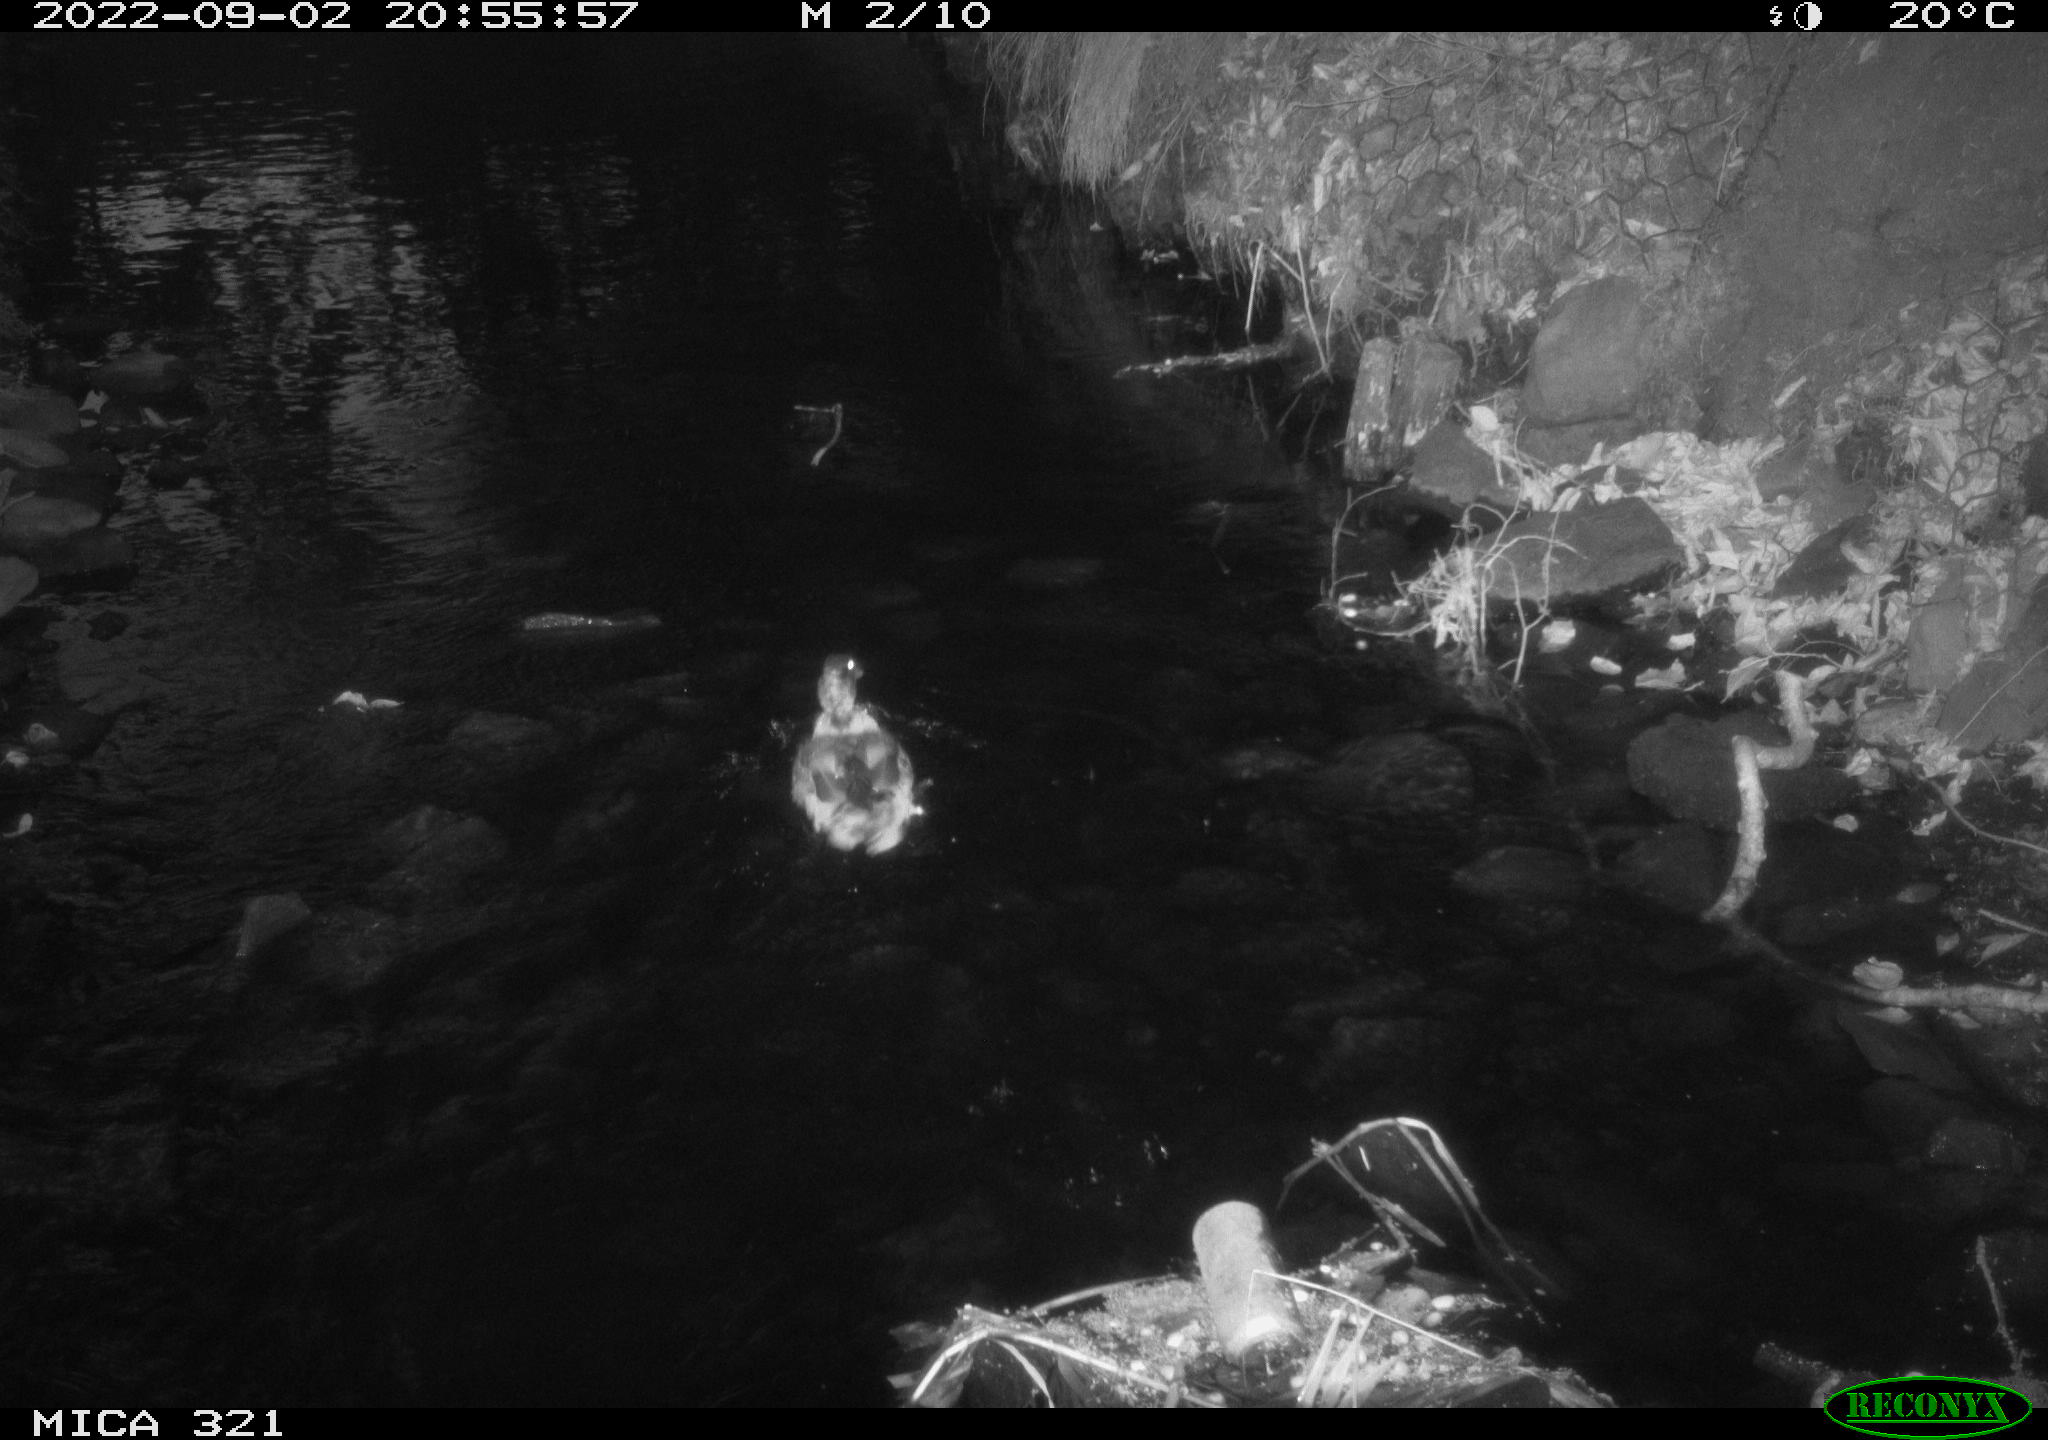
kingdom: Animalia
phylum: Chordata
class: Aves
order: Anseriformes
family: Anatidae
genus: Anas
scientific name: Anas platyrhynchos
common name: Mallard
